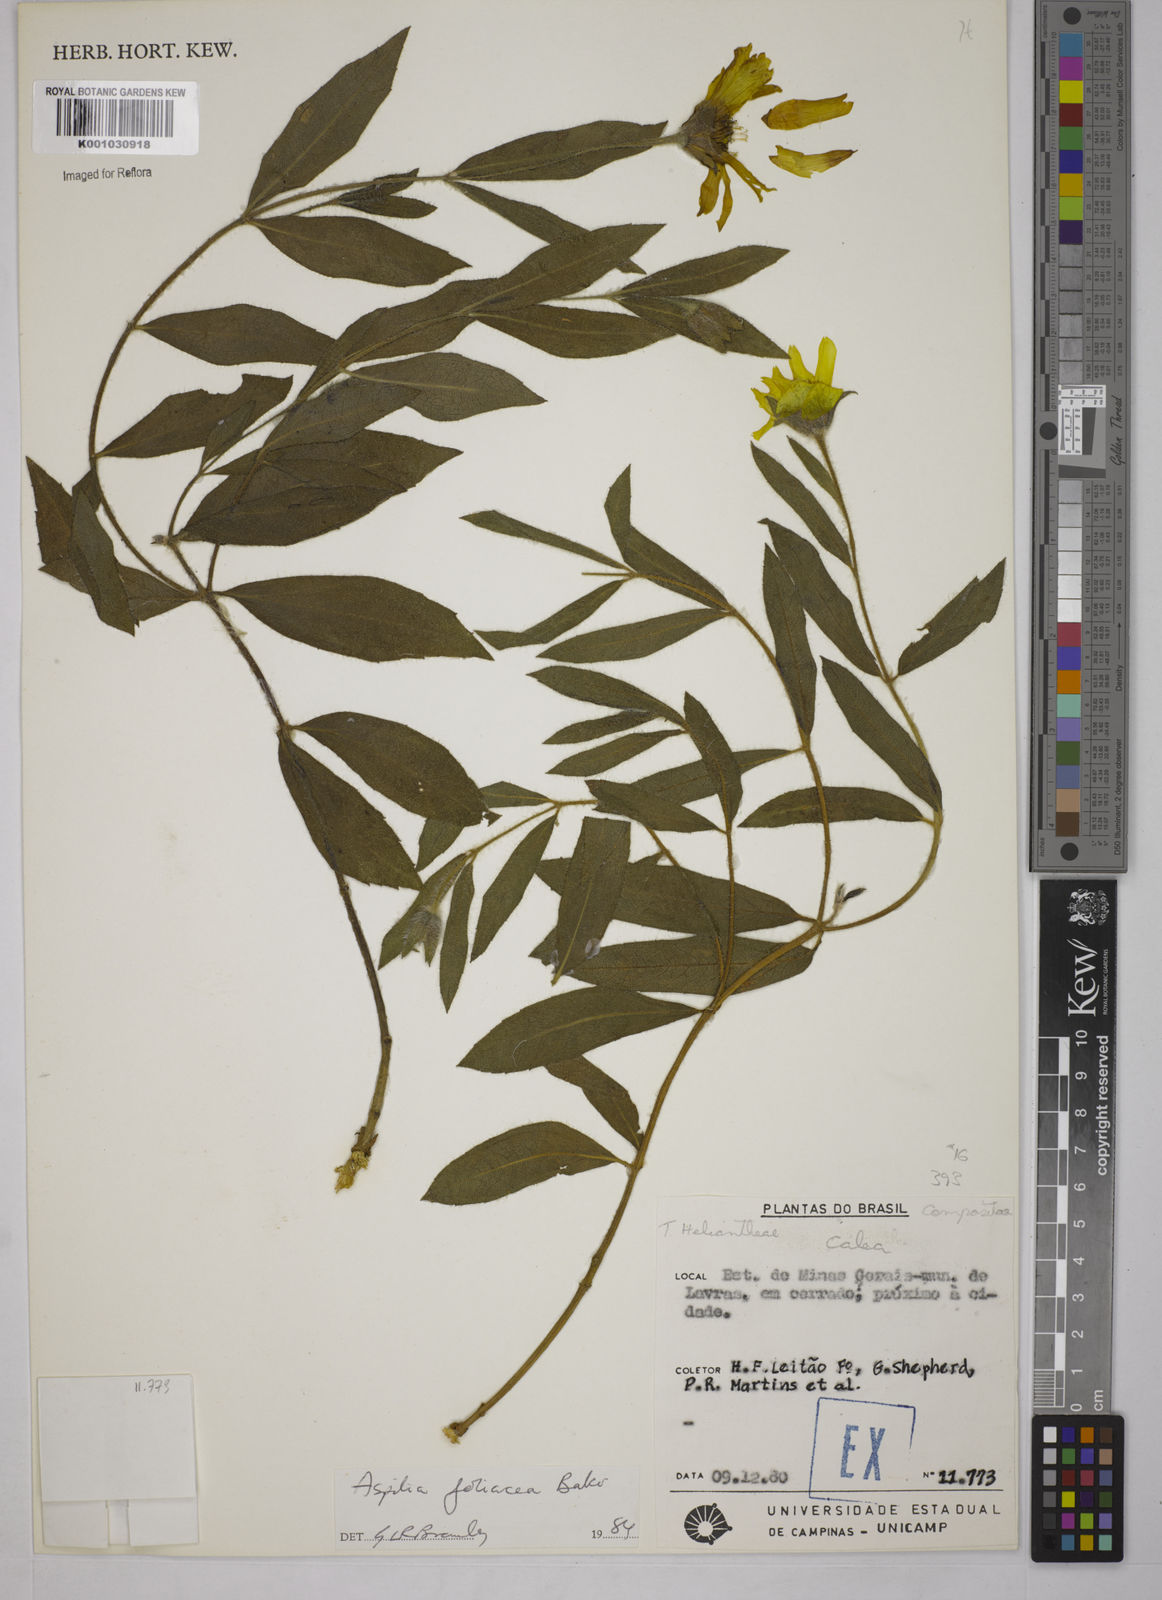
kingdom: Plantae
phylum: Tracheophyta
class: Magnoliopsida
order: Asterales
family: Asteraceae
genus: Wedelia
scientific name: Wedelia foliacea
